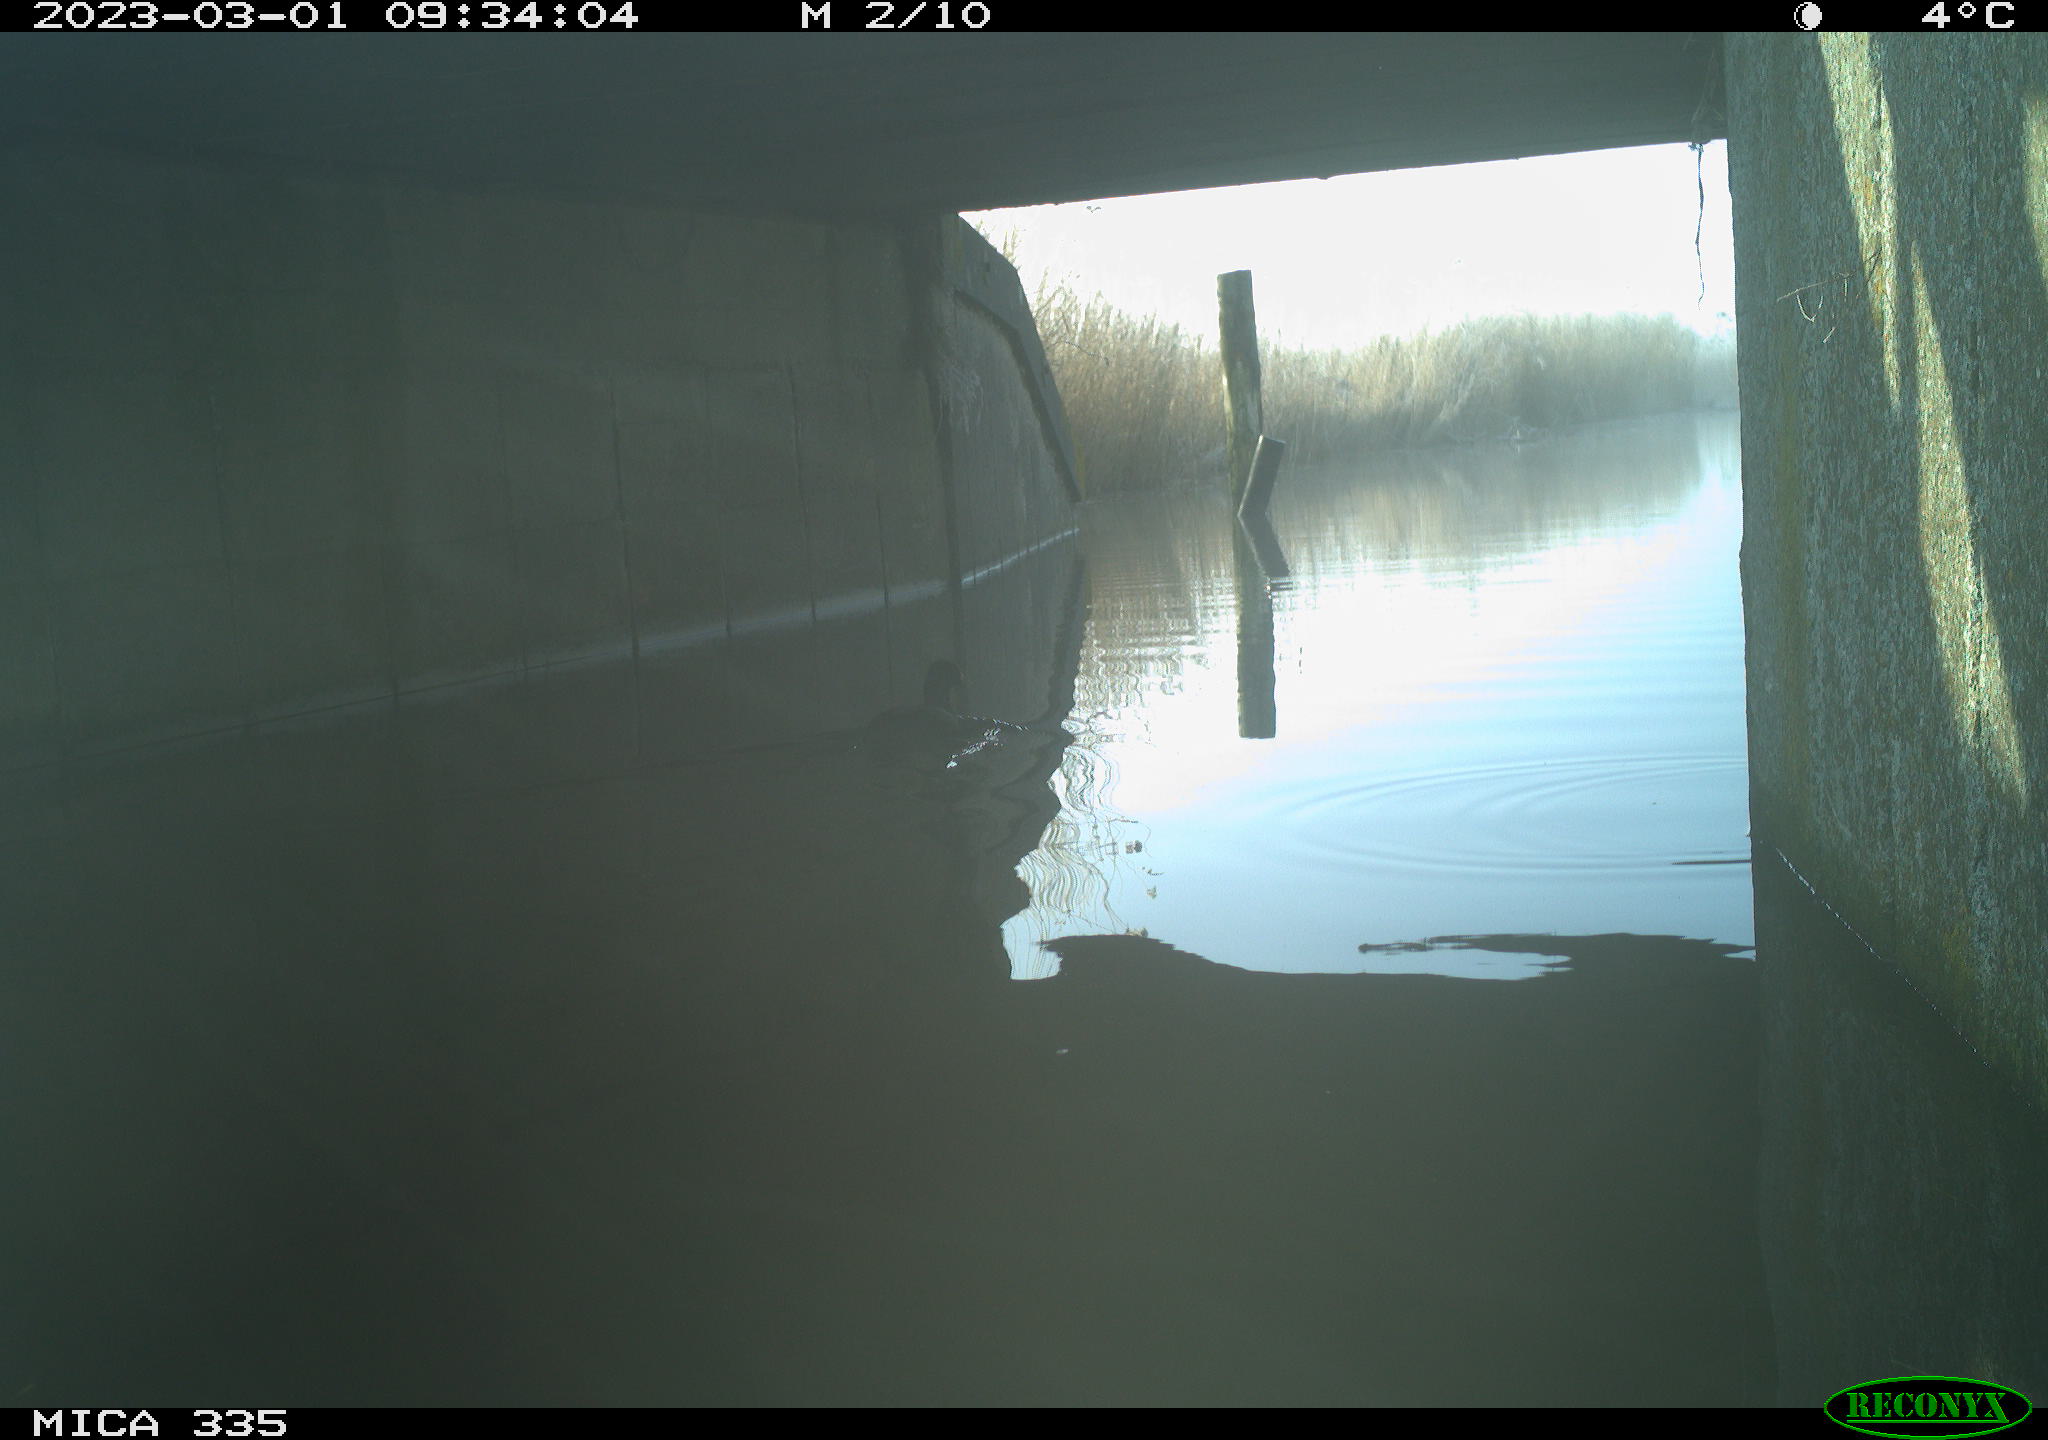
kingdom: Animalia
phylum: Chordata
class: Aves
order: Gruiformes
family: Rallidae
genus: Fulica
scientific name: Fulica atra
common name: Eurasian coot
